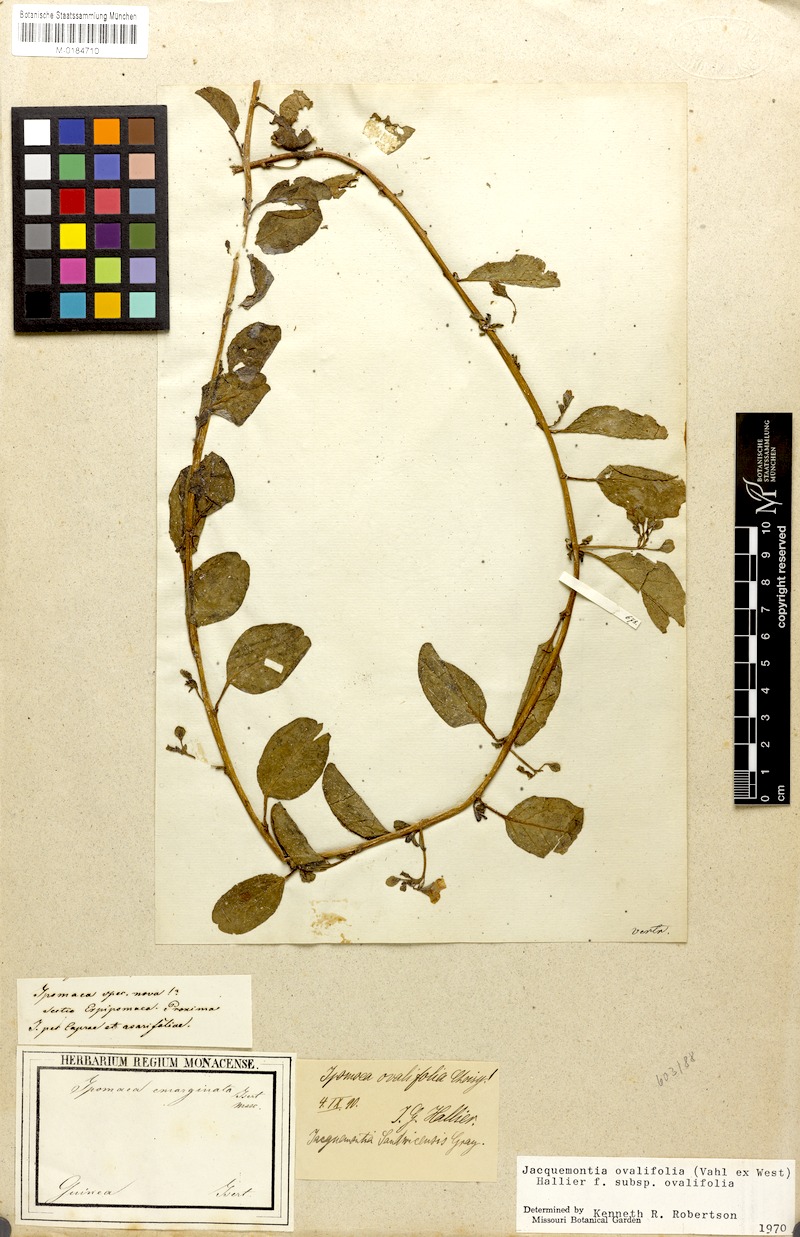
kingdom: Plantae
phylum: Tracheophyta
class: Magnoliopsida
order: Solanales
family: Convolvulaceae
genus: Jacquemontia
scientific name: Jacquemontia ovalifolia
